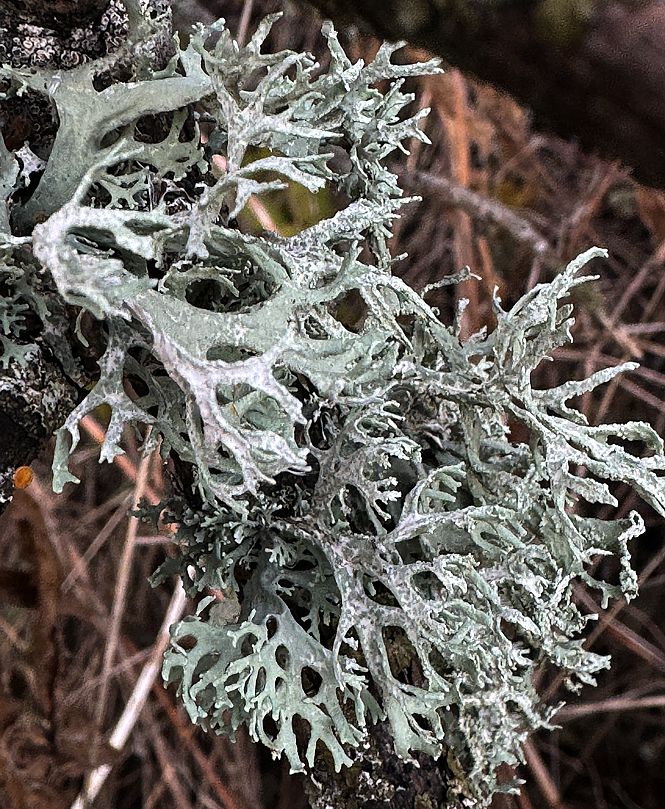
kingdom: Fungi
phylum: Ascomycota
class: Lecanoromycetes
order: Lecanorales
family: Parmeliaceae
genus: Evernia
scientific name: Evernia prunastri
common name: almindelig slåenlav
